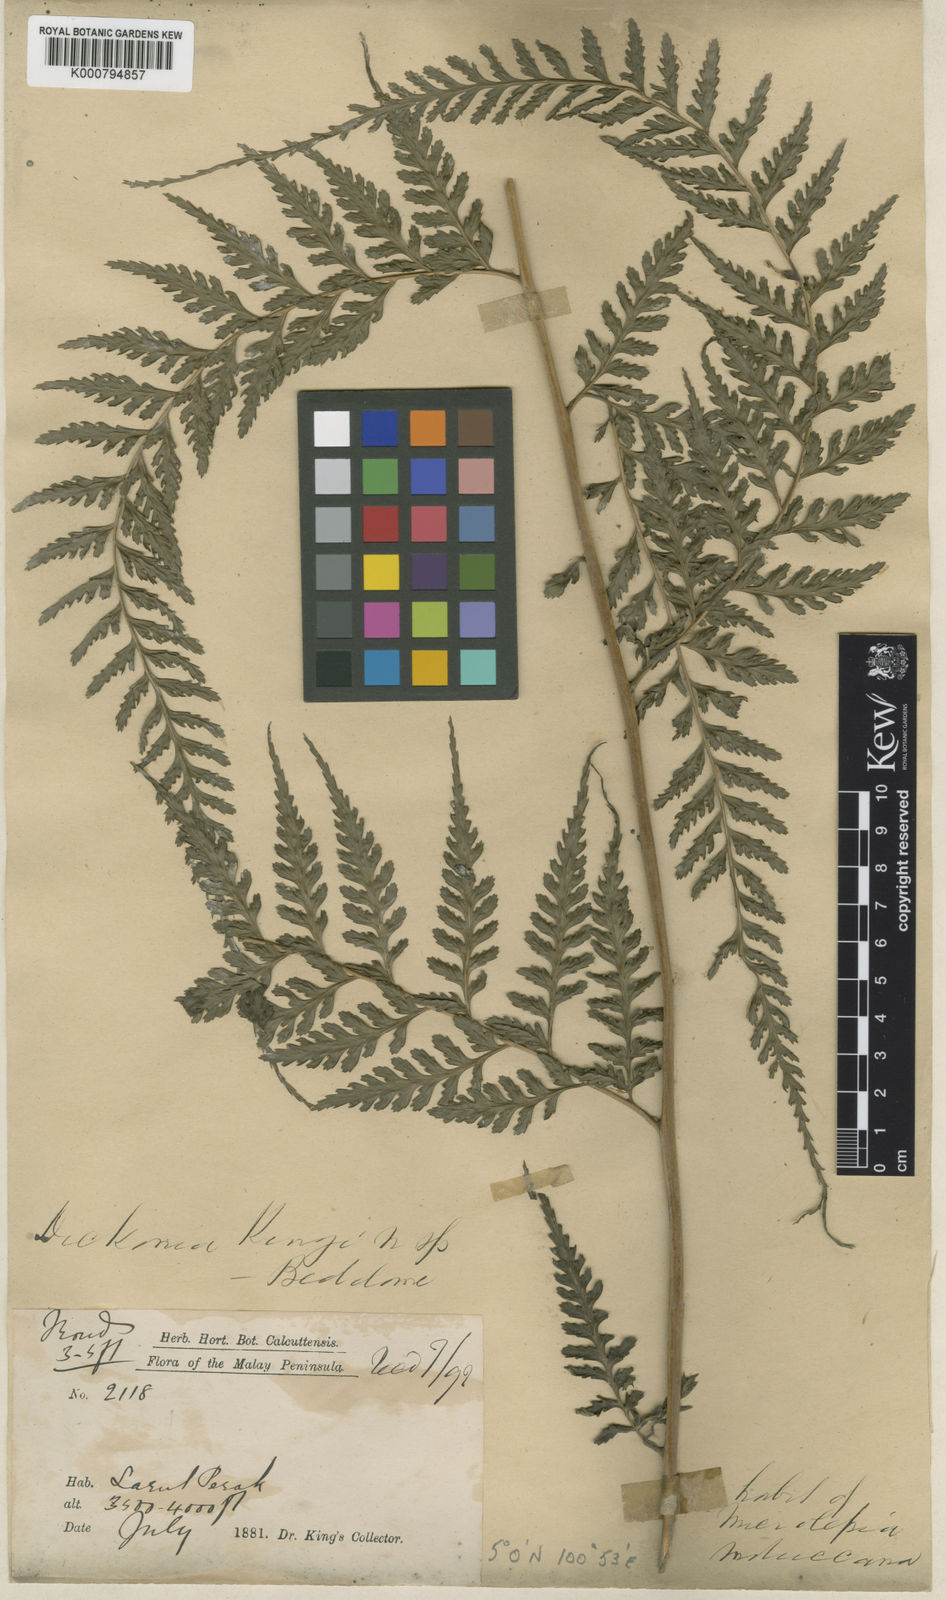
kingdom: Plantae
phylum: Tracheophyta
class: Polypodiopsida
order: Polypodiales
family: Saccolomataceae
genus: Orthiopteris
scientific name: Orthiopteris campylura
